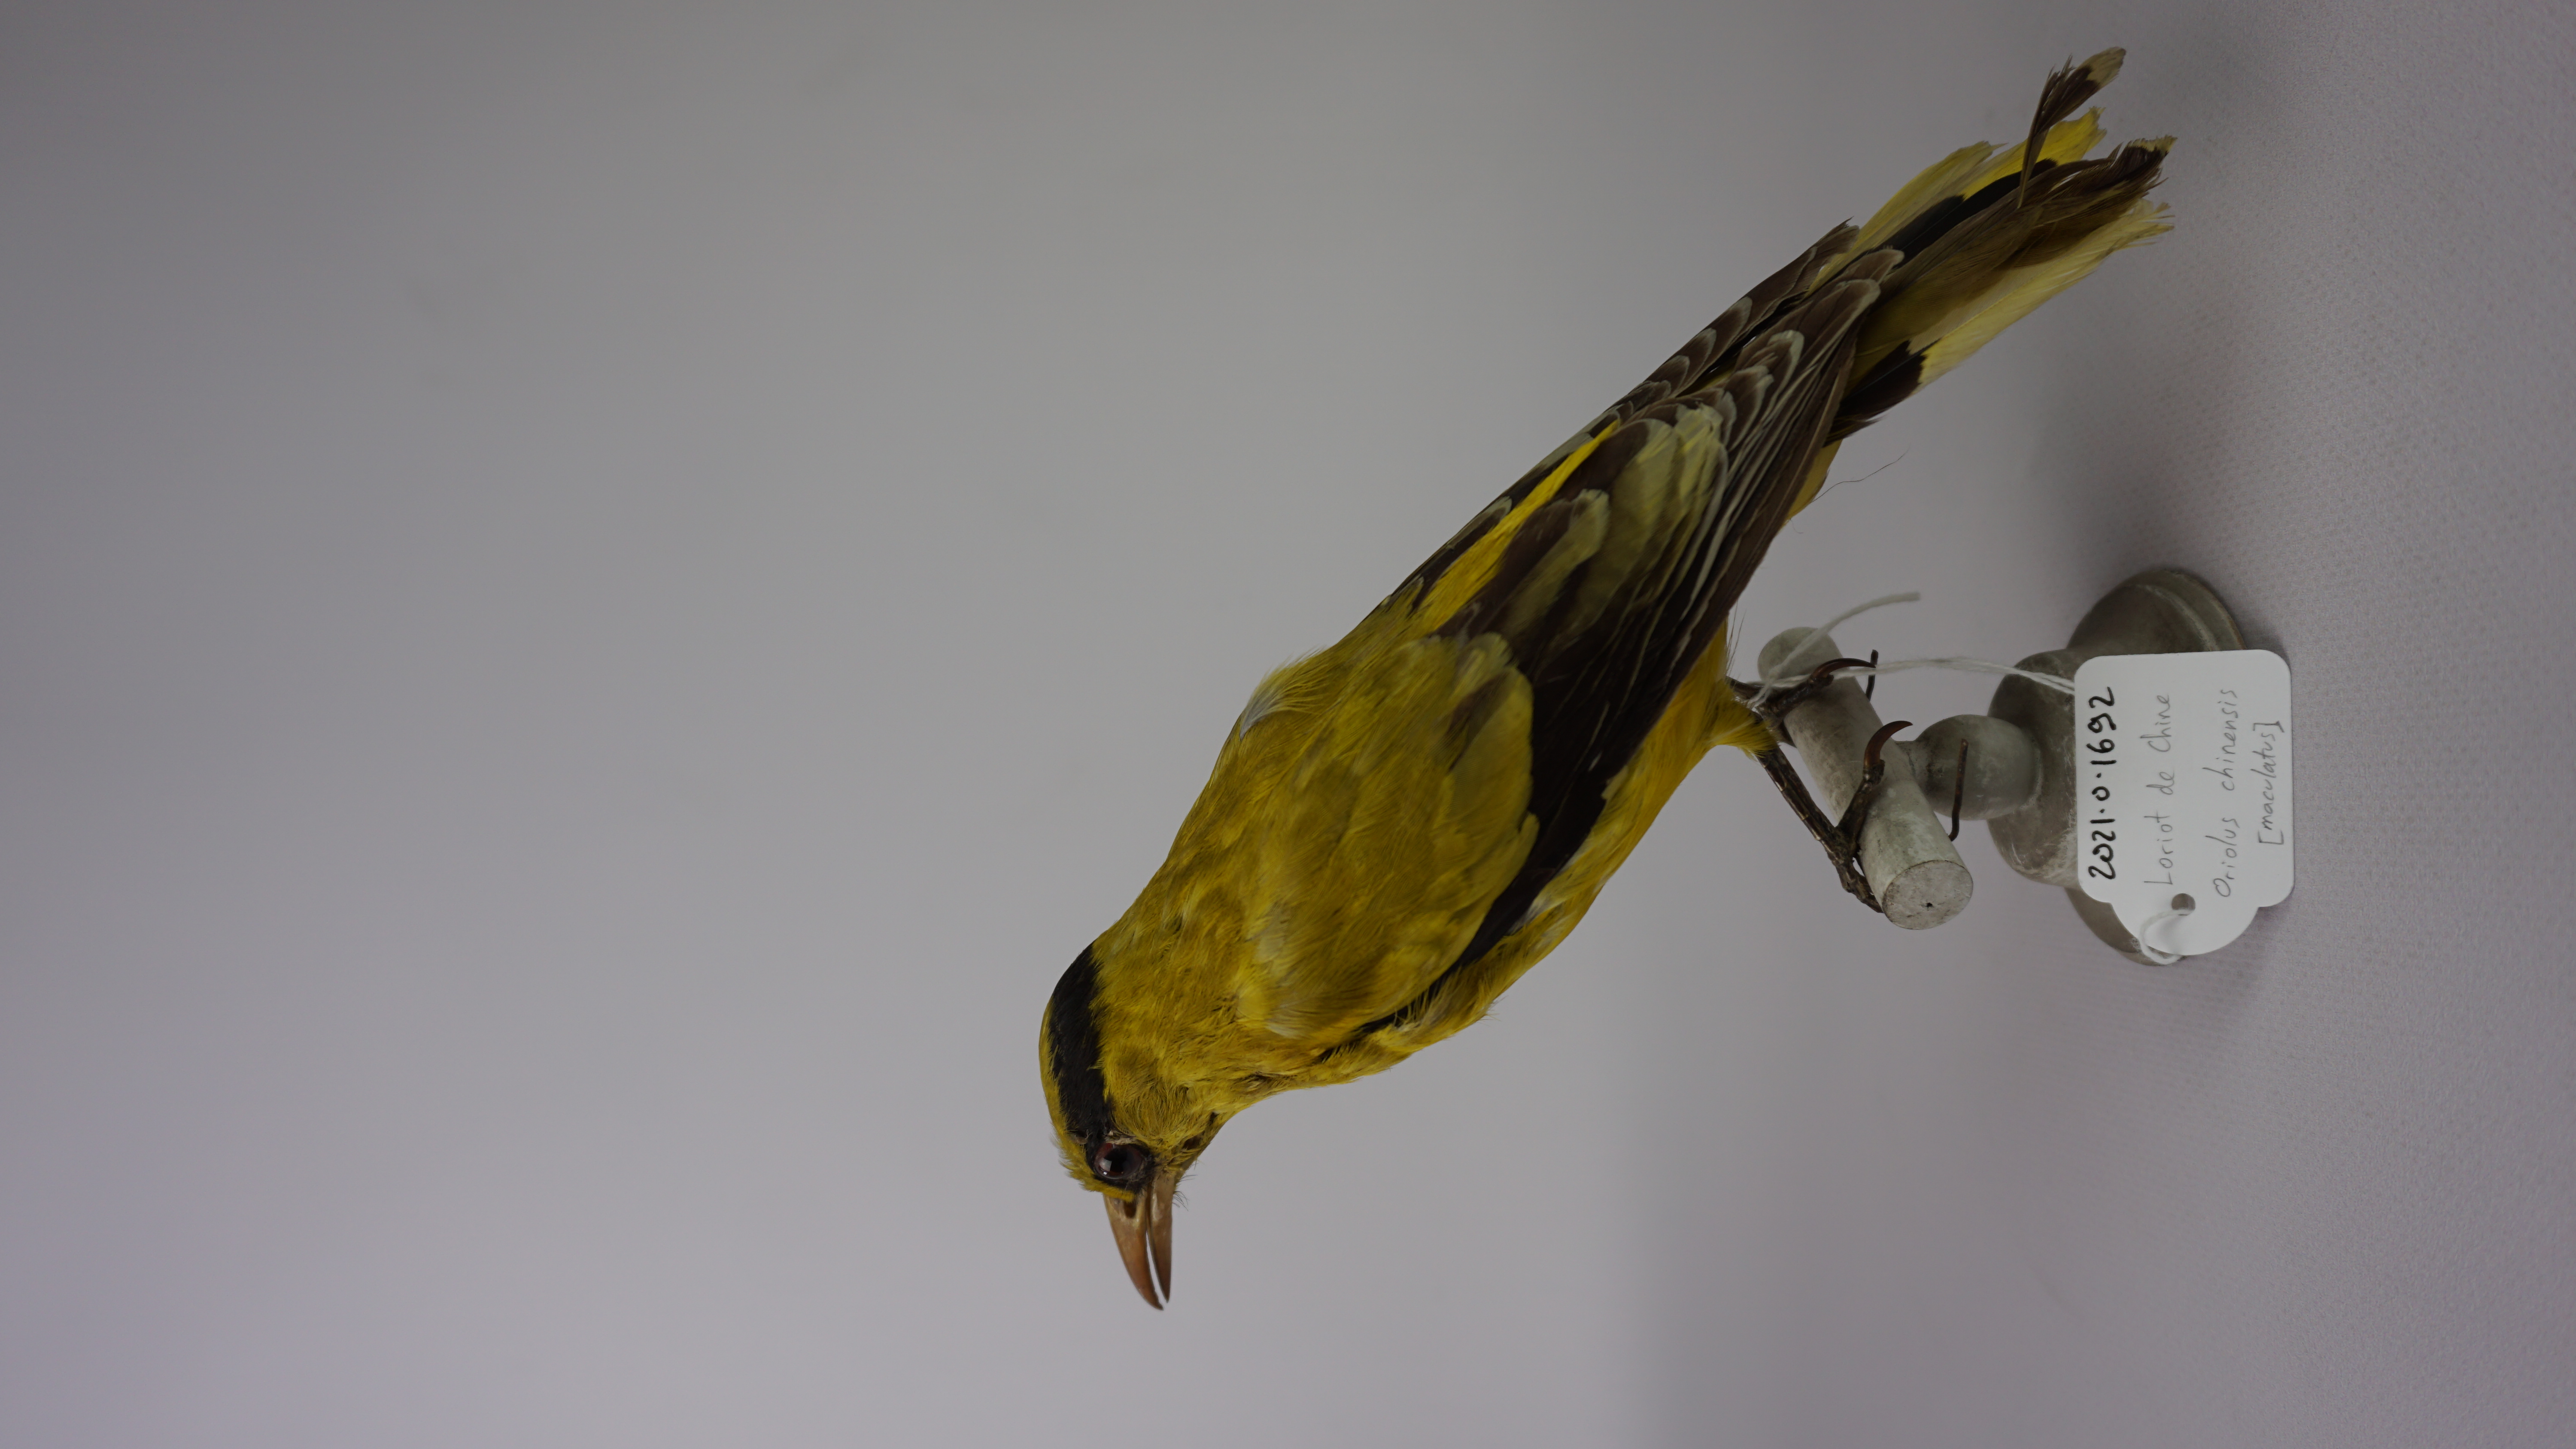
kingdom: Animalia
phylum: Chordata
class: Aves
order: Passeriformes
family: Oriolidae
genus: Oriolus
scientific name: Oriolus chinensis
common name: Black-naped oriole
